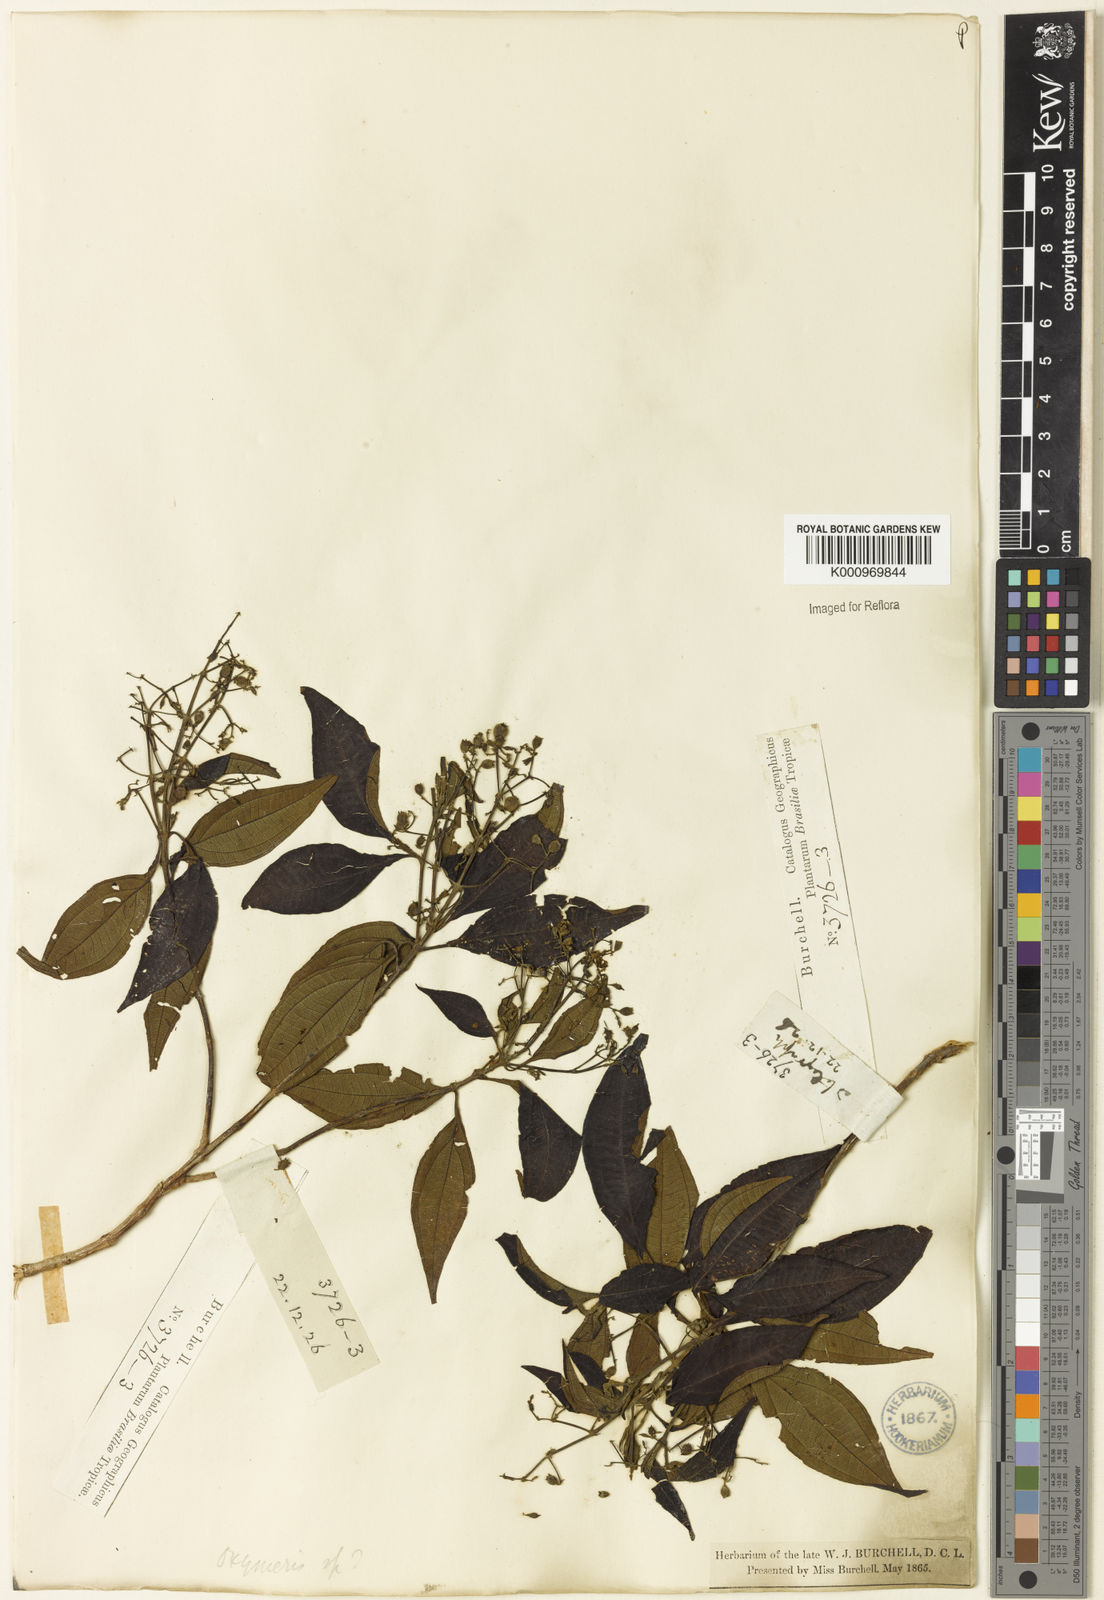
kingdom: Plantae
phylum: Tracheophyta
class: Magnoliopsida
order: Myrtales
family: Melastomataceae
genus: Miconia
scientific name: Miconia
